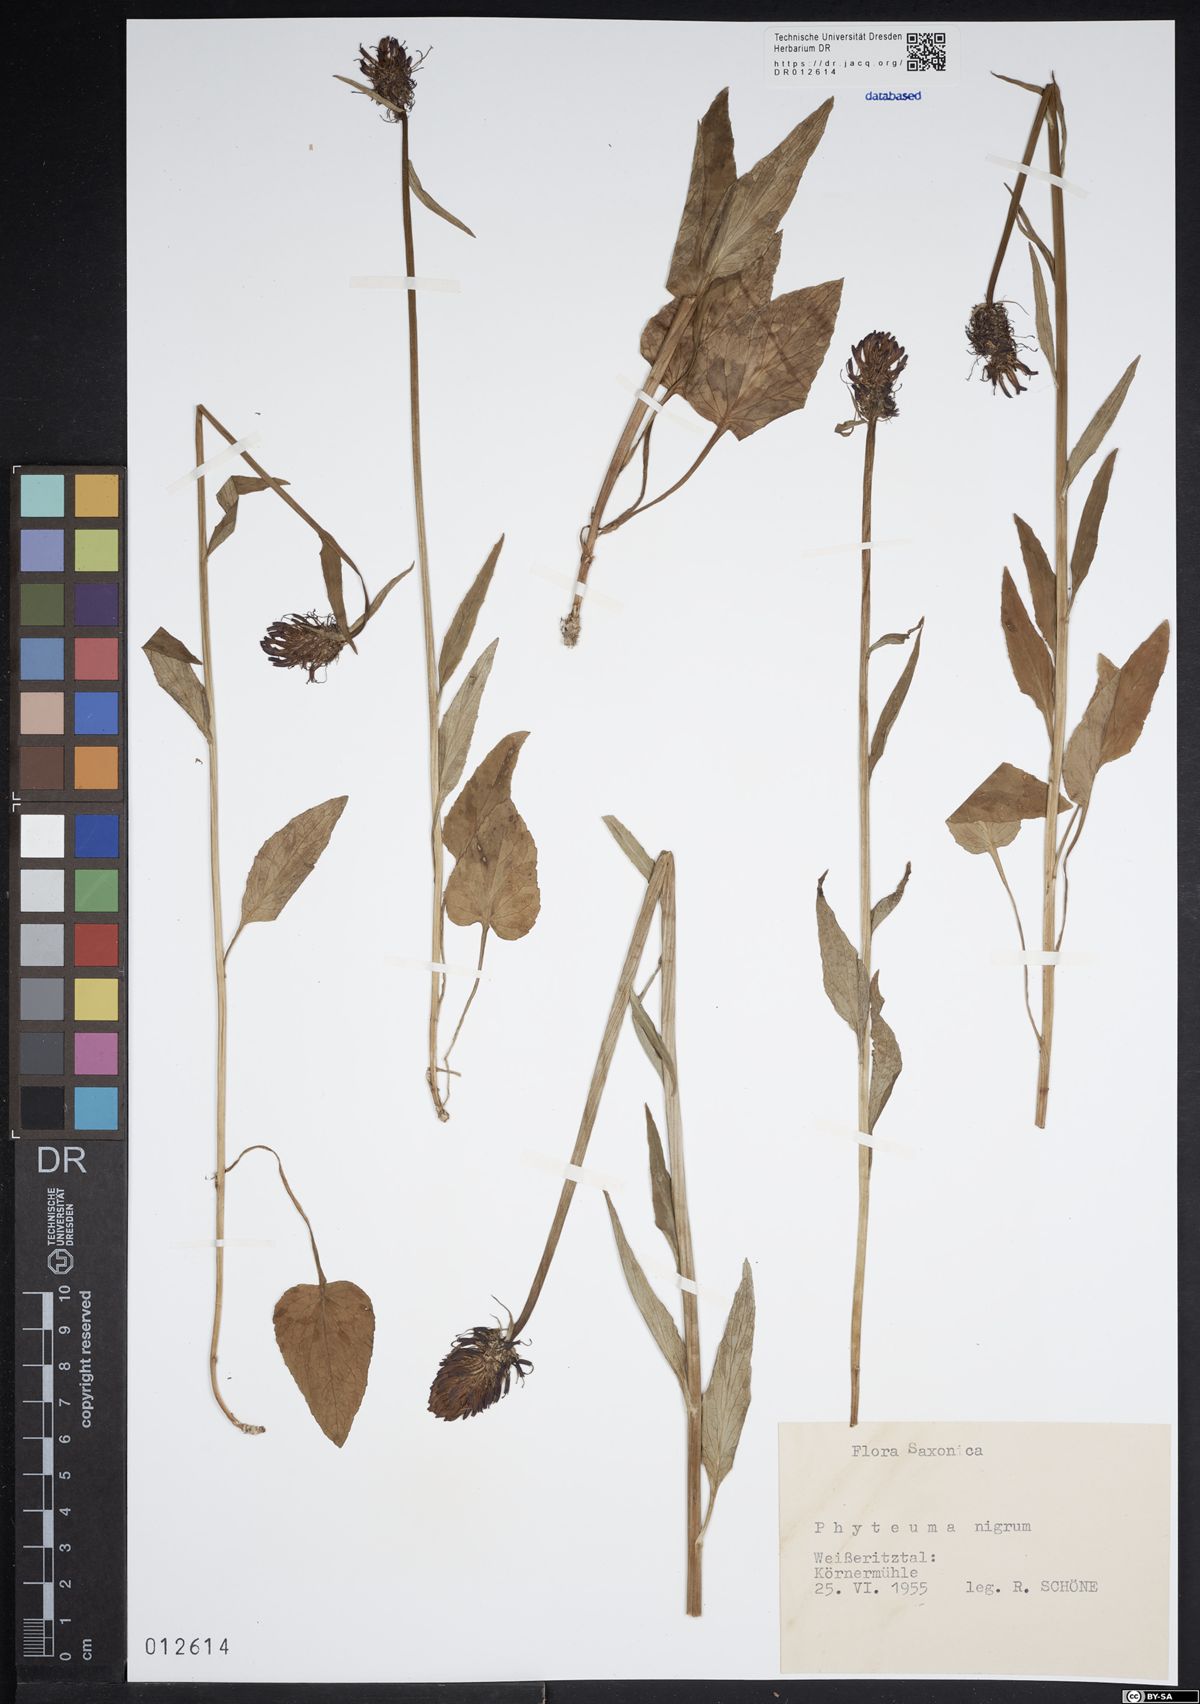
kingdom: Plantae
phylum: Tracheophyta
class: Magnoliopsida
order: Asterales
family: Campanulaceae
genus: Phyteuma
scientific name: Phyteuma nigrum
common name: Black rampion
